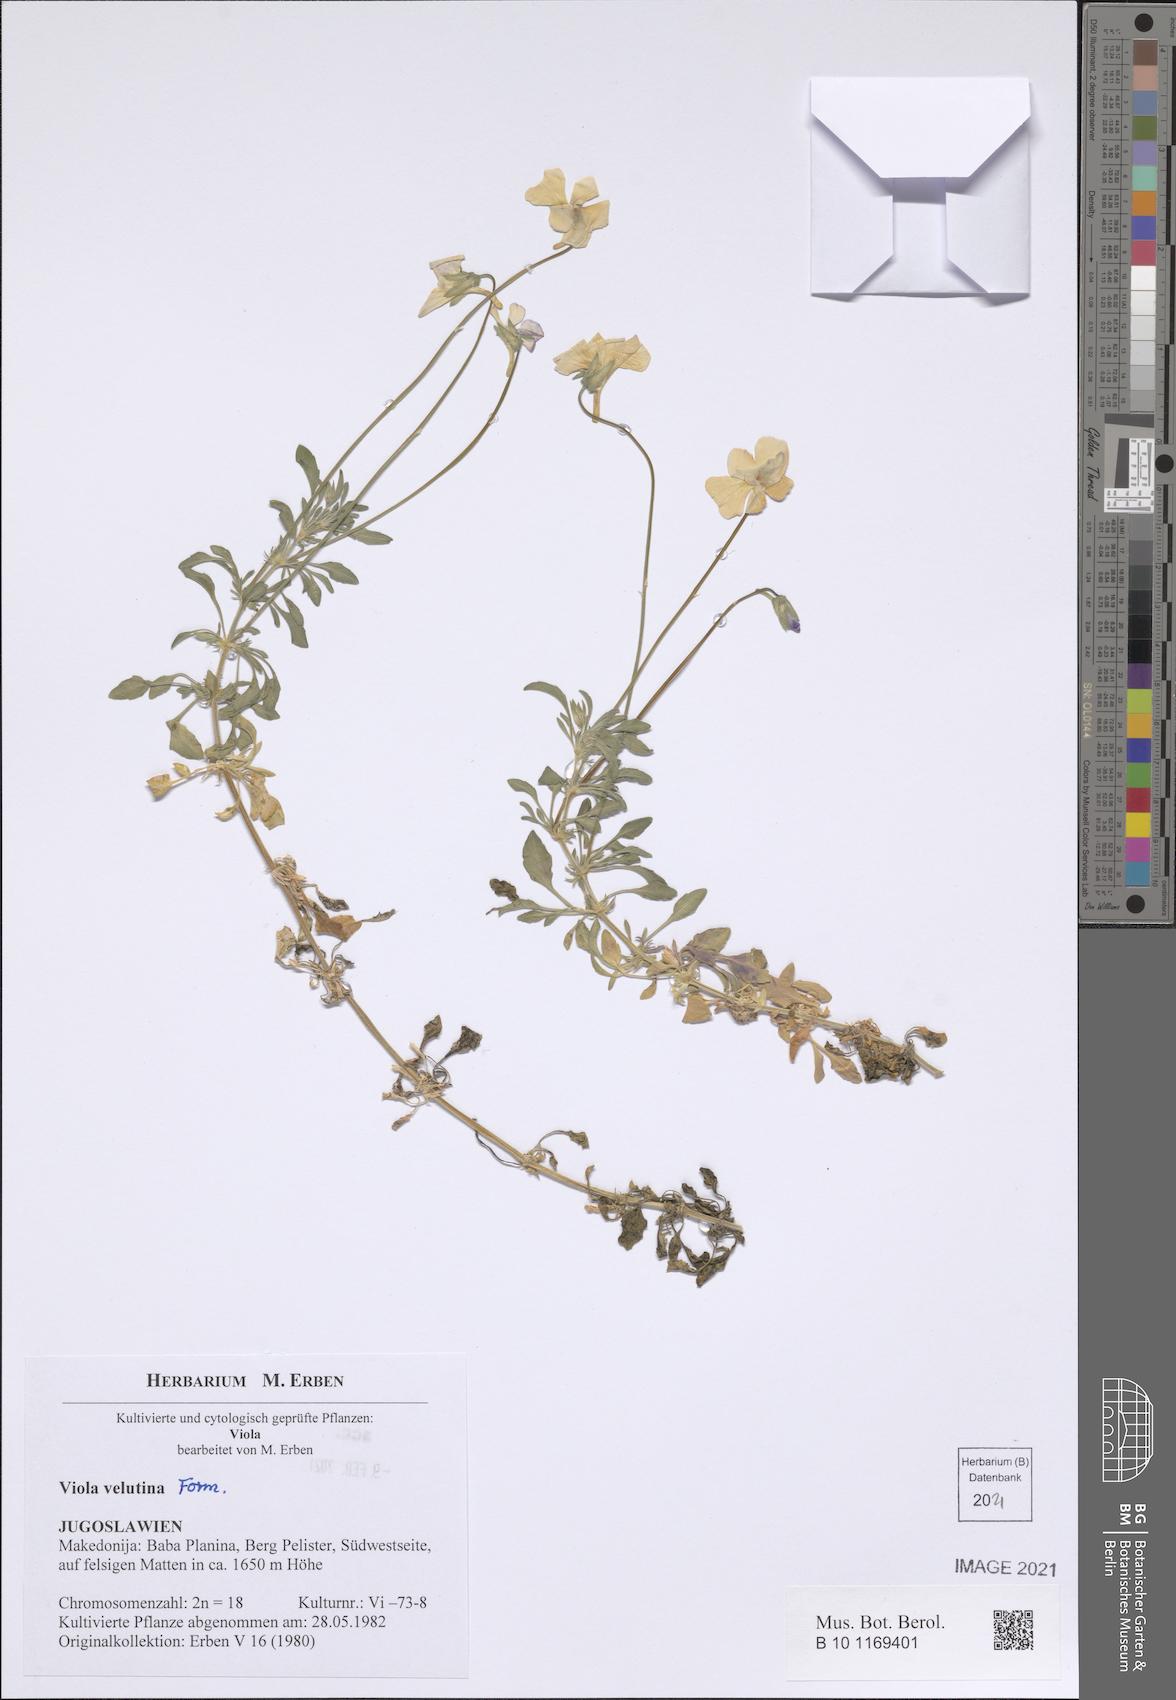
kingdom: Plantae
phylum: Tracheophyta
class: Magnoliopsida
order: Malpighiales
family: Violaceae
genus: Viola
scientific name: Viola velutina
